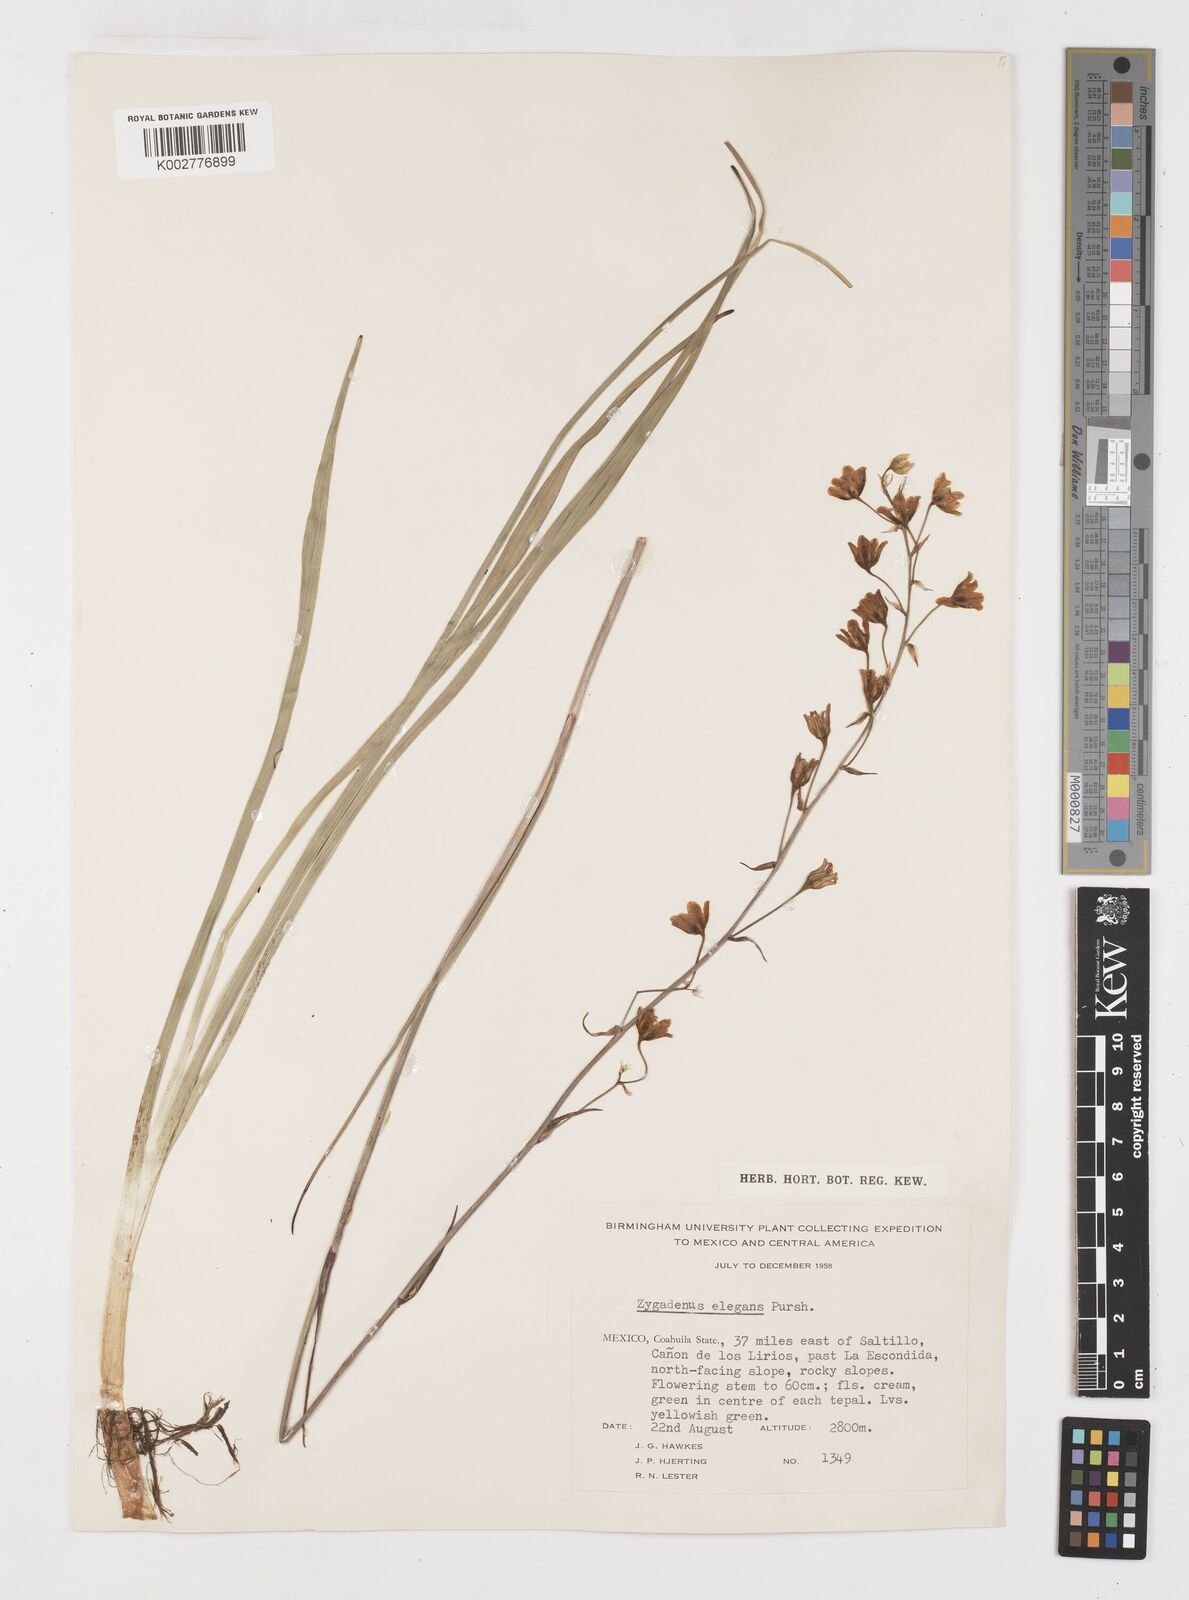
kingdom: Plantae
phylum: Tracheophyta
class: Liliopsida
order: Liliales
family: Melanthiaceae
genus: Anticlea
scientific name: Anticlea virescens
